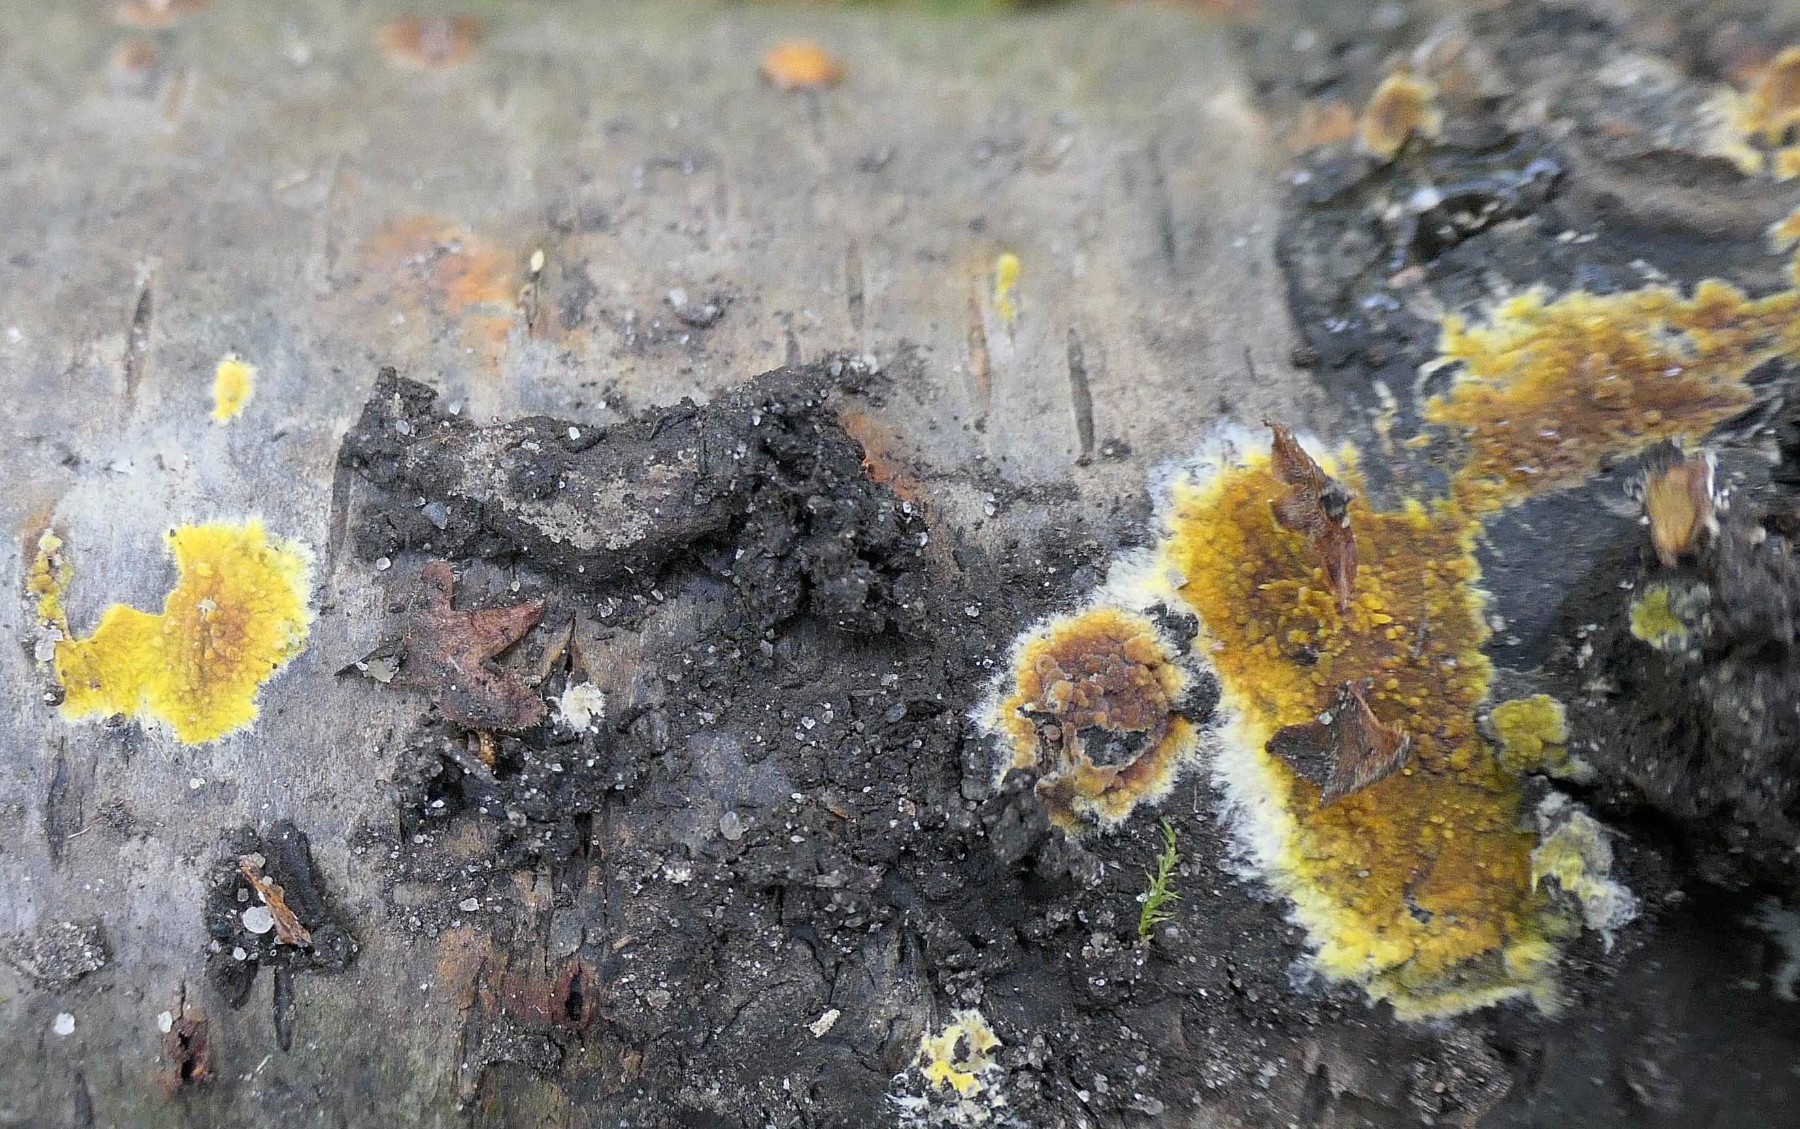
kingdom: Fungi
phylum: Basidiomycota
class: Agaricomycetes
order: Polyporales
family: Meruliaceae
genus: Phlebiodontia
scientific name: Phlebiodontia subochracea
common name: svovl-åresvamp
